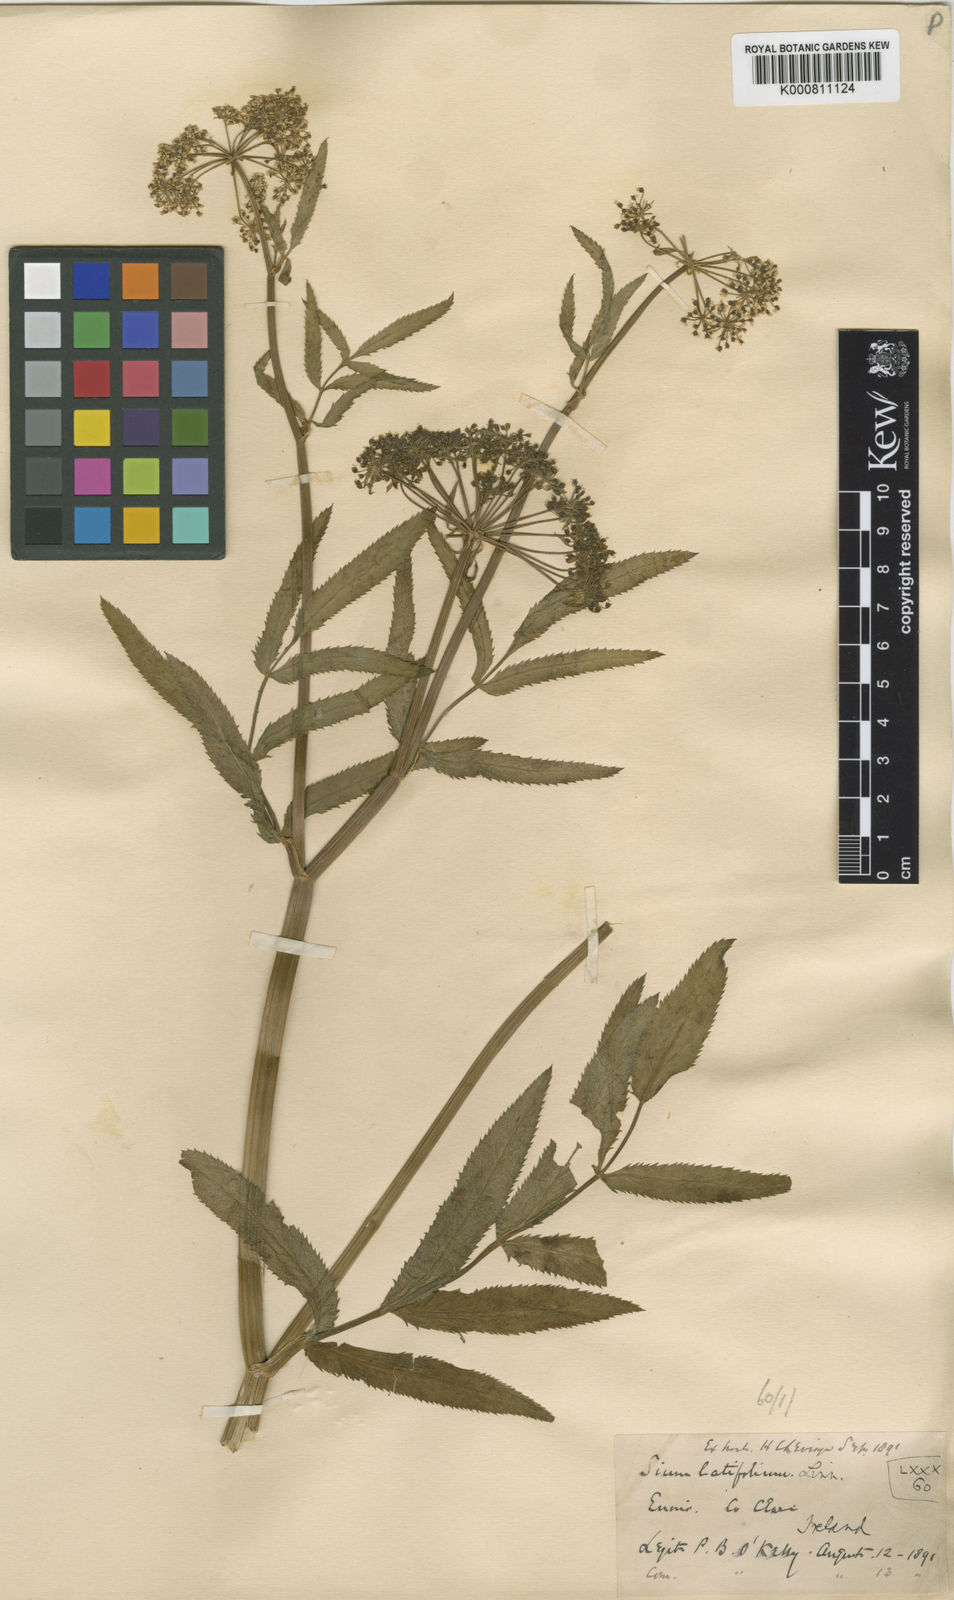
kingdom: Plantae
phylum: Tracheophyta
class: Magnoliopsida
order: Apiales
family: Apiaceae
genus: Sium
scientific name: Sium latifolium
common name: Greater water-parsnip
